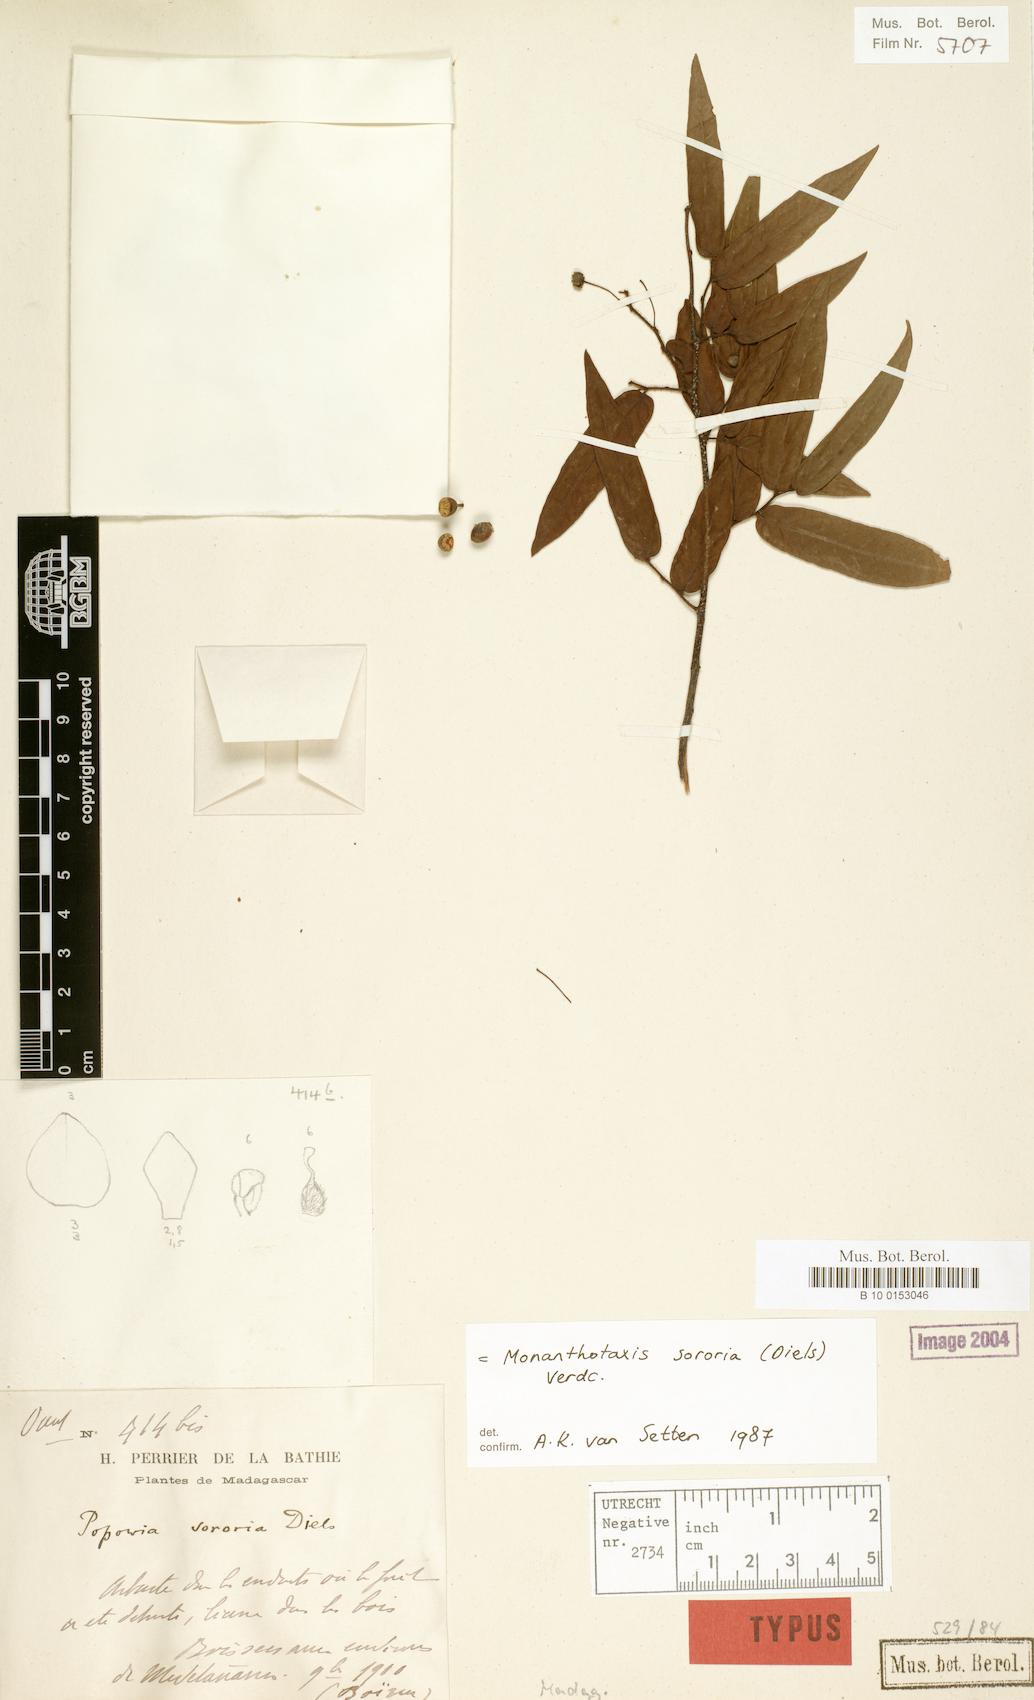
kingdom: Plantae
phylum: Tracheophyta
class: Magnoliopsida
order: Magnoliales
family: Annonaceae
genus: Monanthotaxis
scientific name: Monanthotaxis sororia
